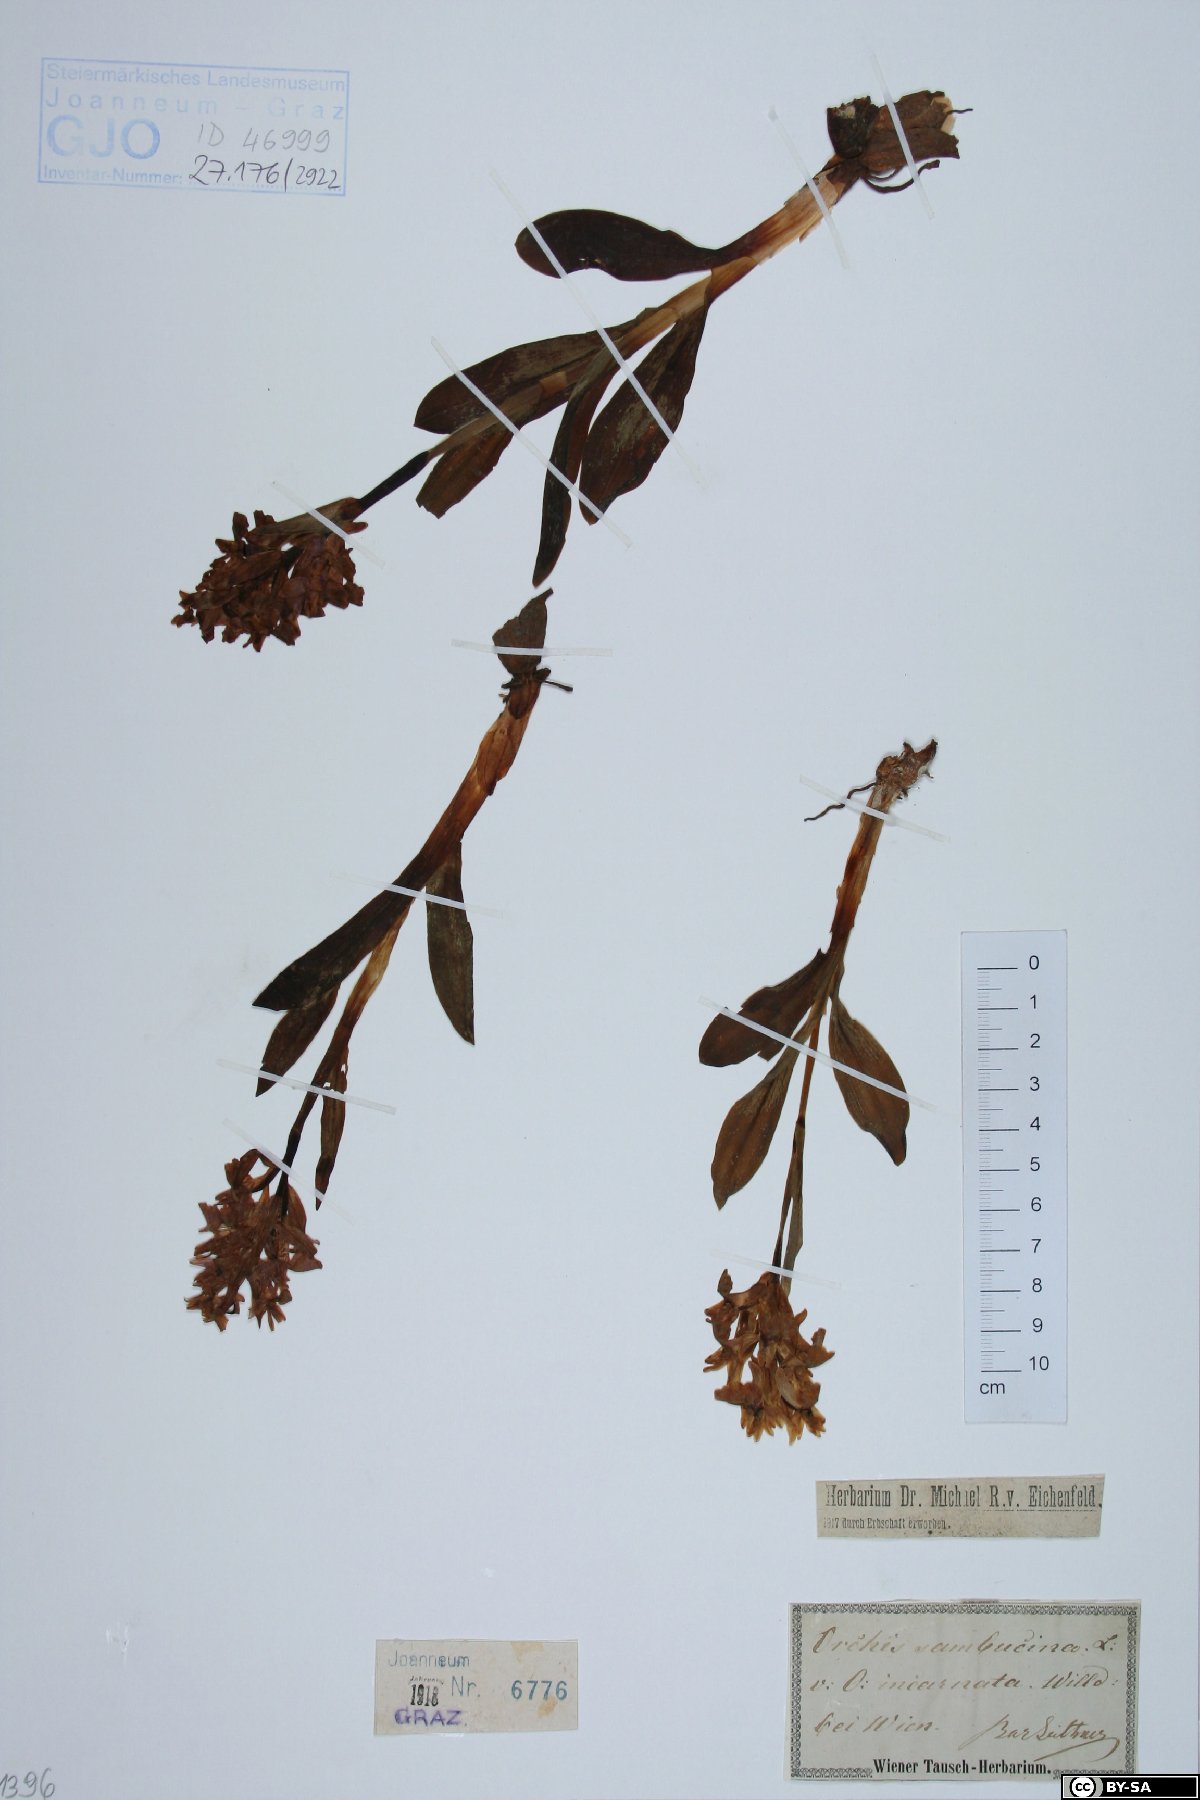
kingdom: Plantae
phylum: Tracheophyta
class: Liliopsida
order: Asparagales
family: Orchidaceae
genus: Dactylorhiza
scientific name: Dactylorhiza sambucina
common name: Elder-flowered orchid
